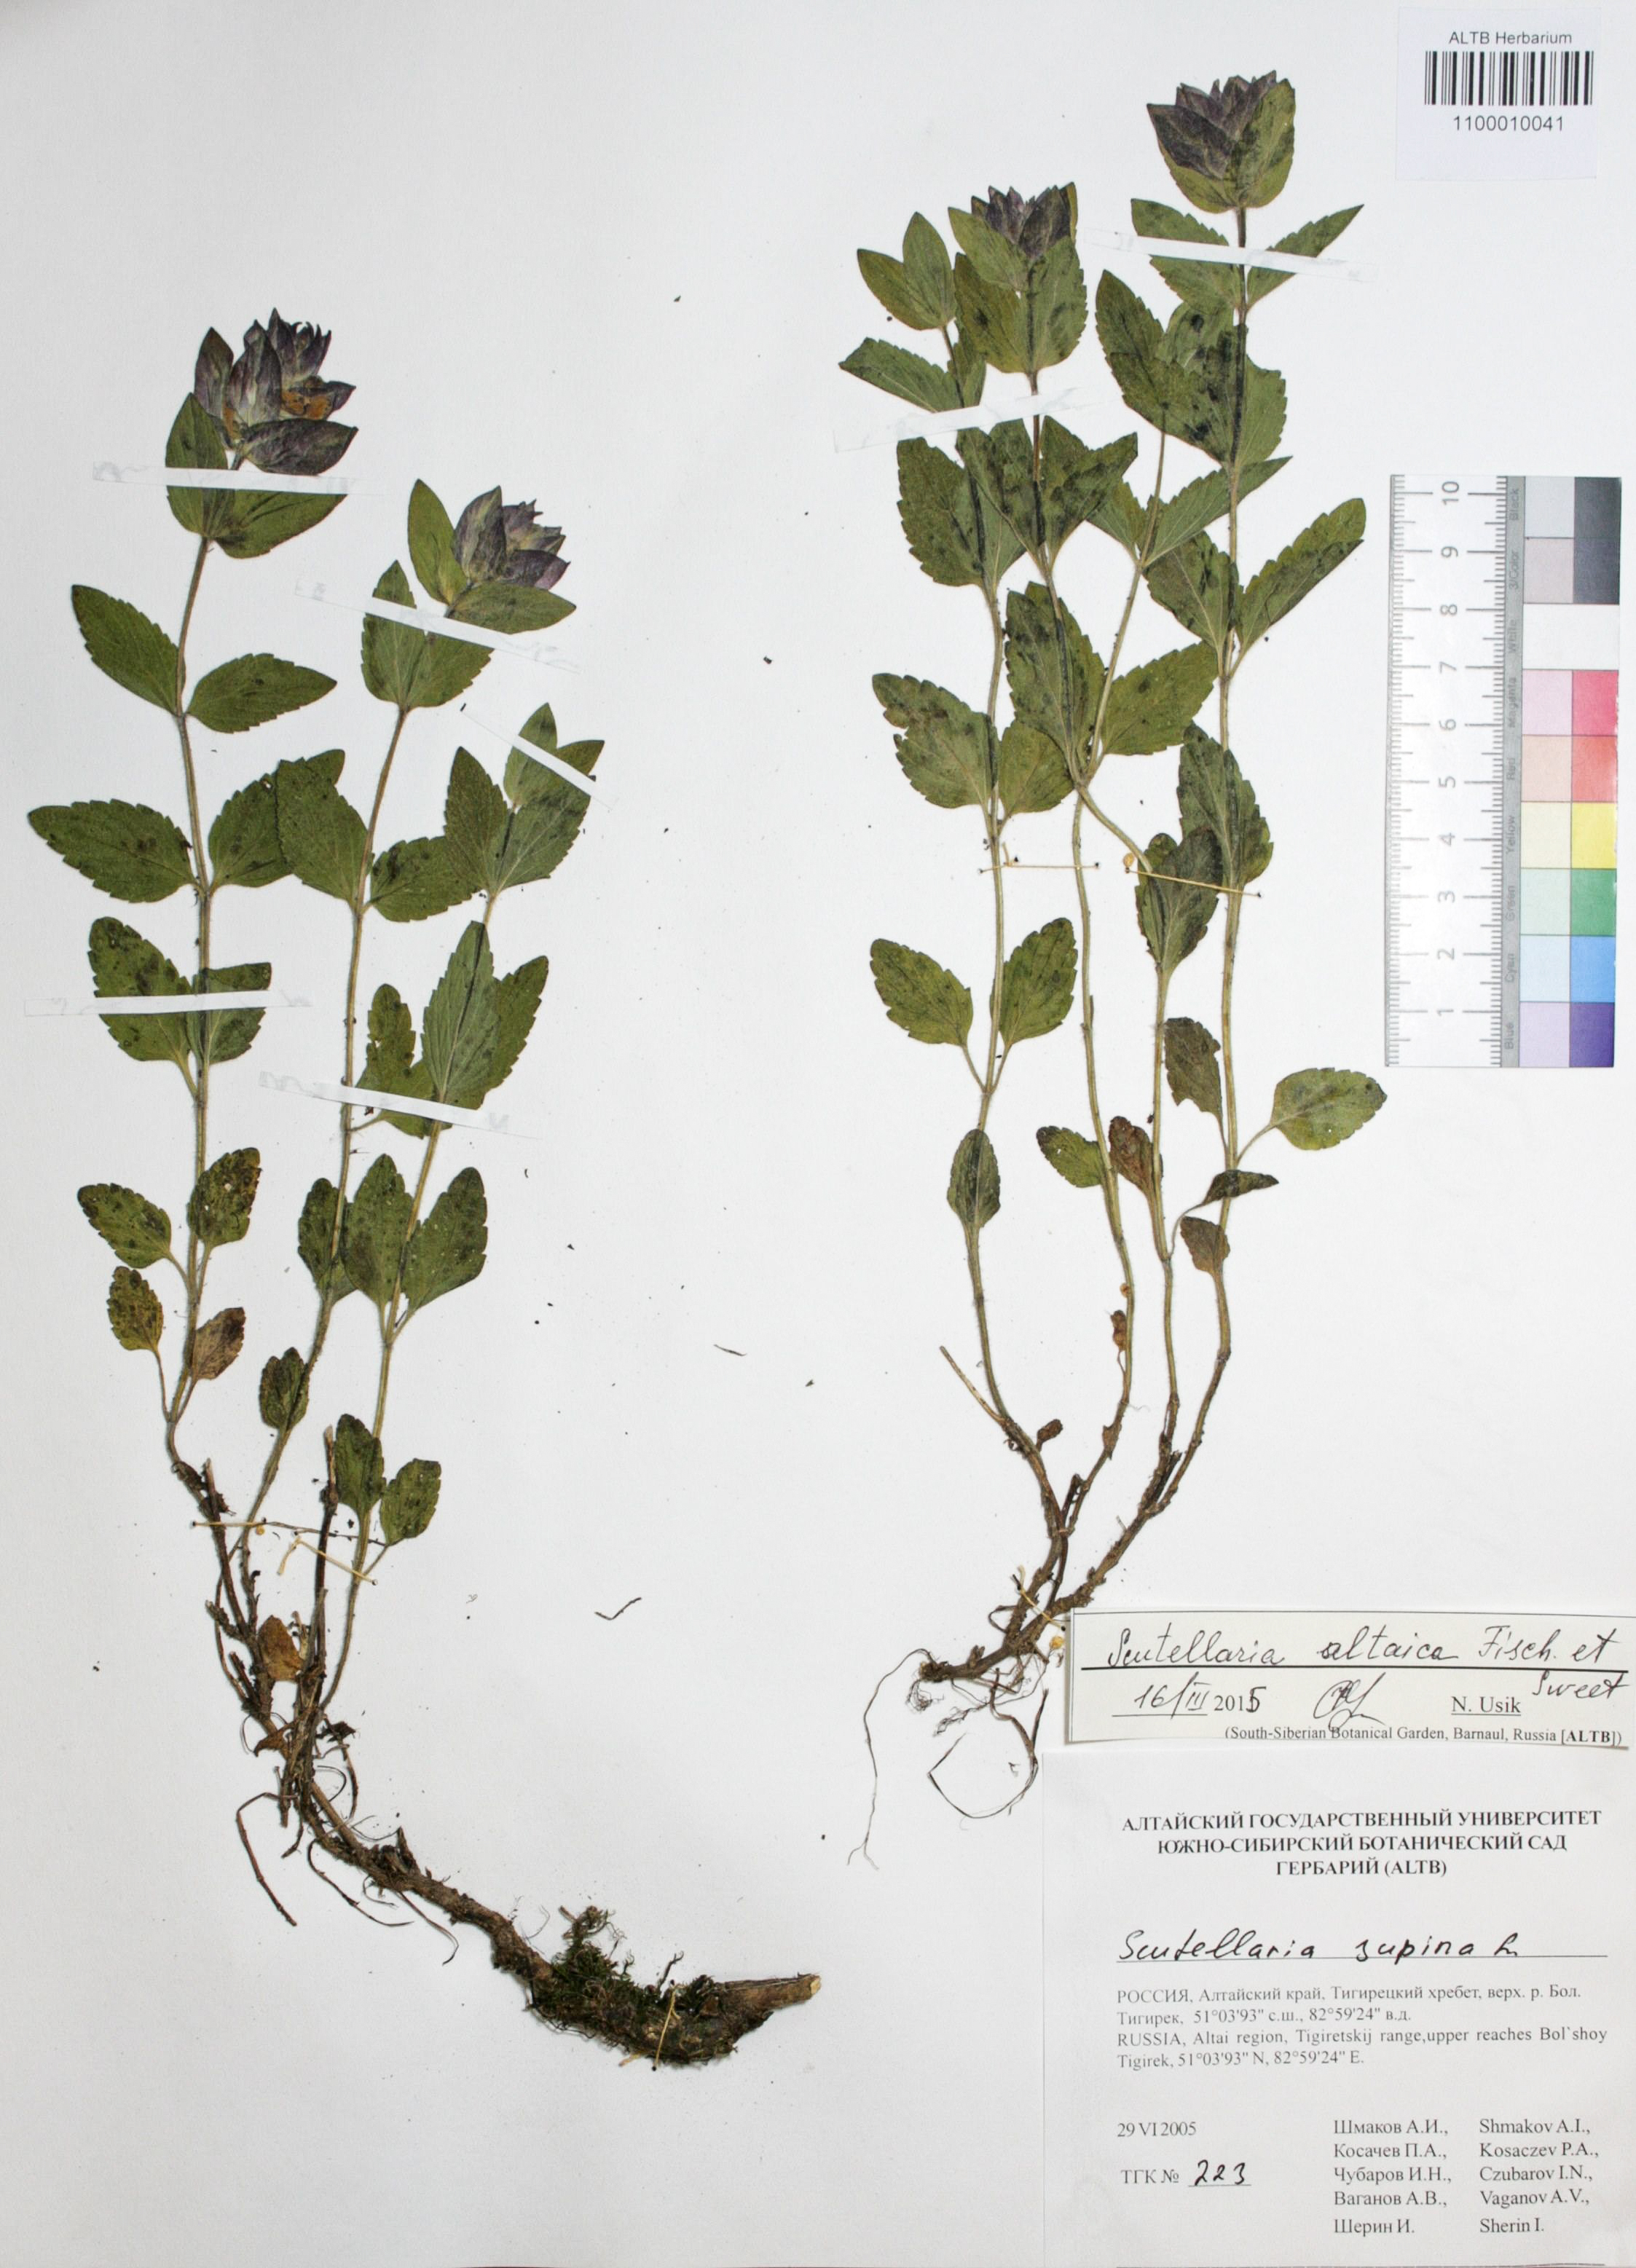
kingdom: Plantae
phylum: Tracheophyta
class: Magnoliopsida
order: Lamiales
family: Lamiaceae
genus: Scutellaria
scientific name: Scutellaria supina
